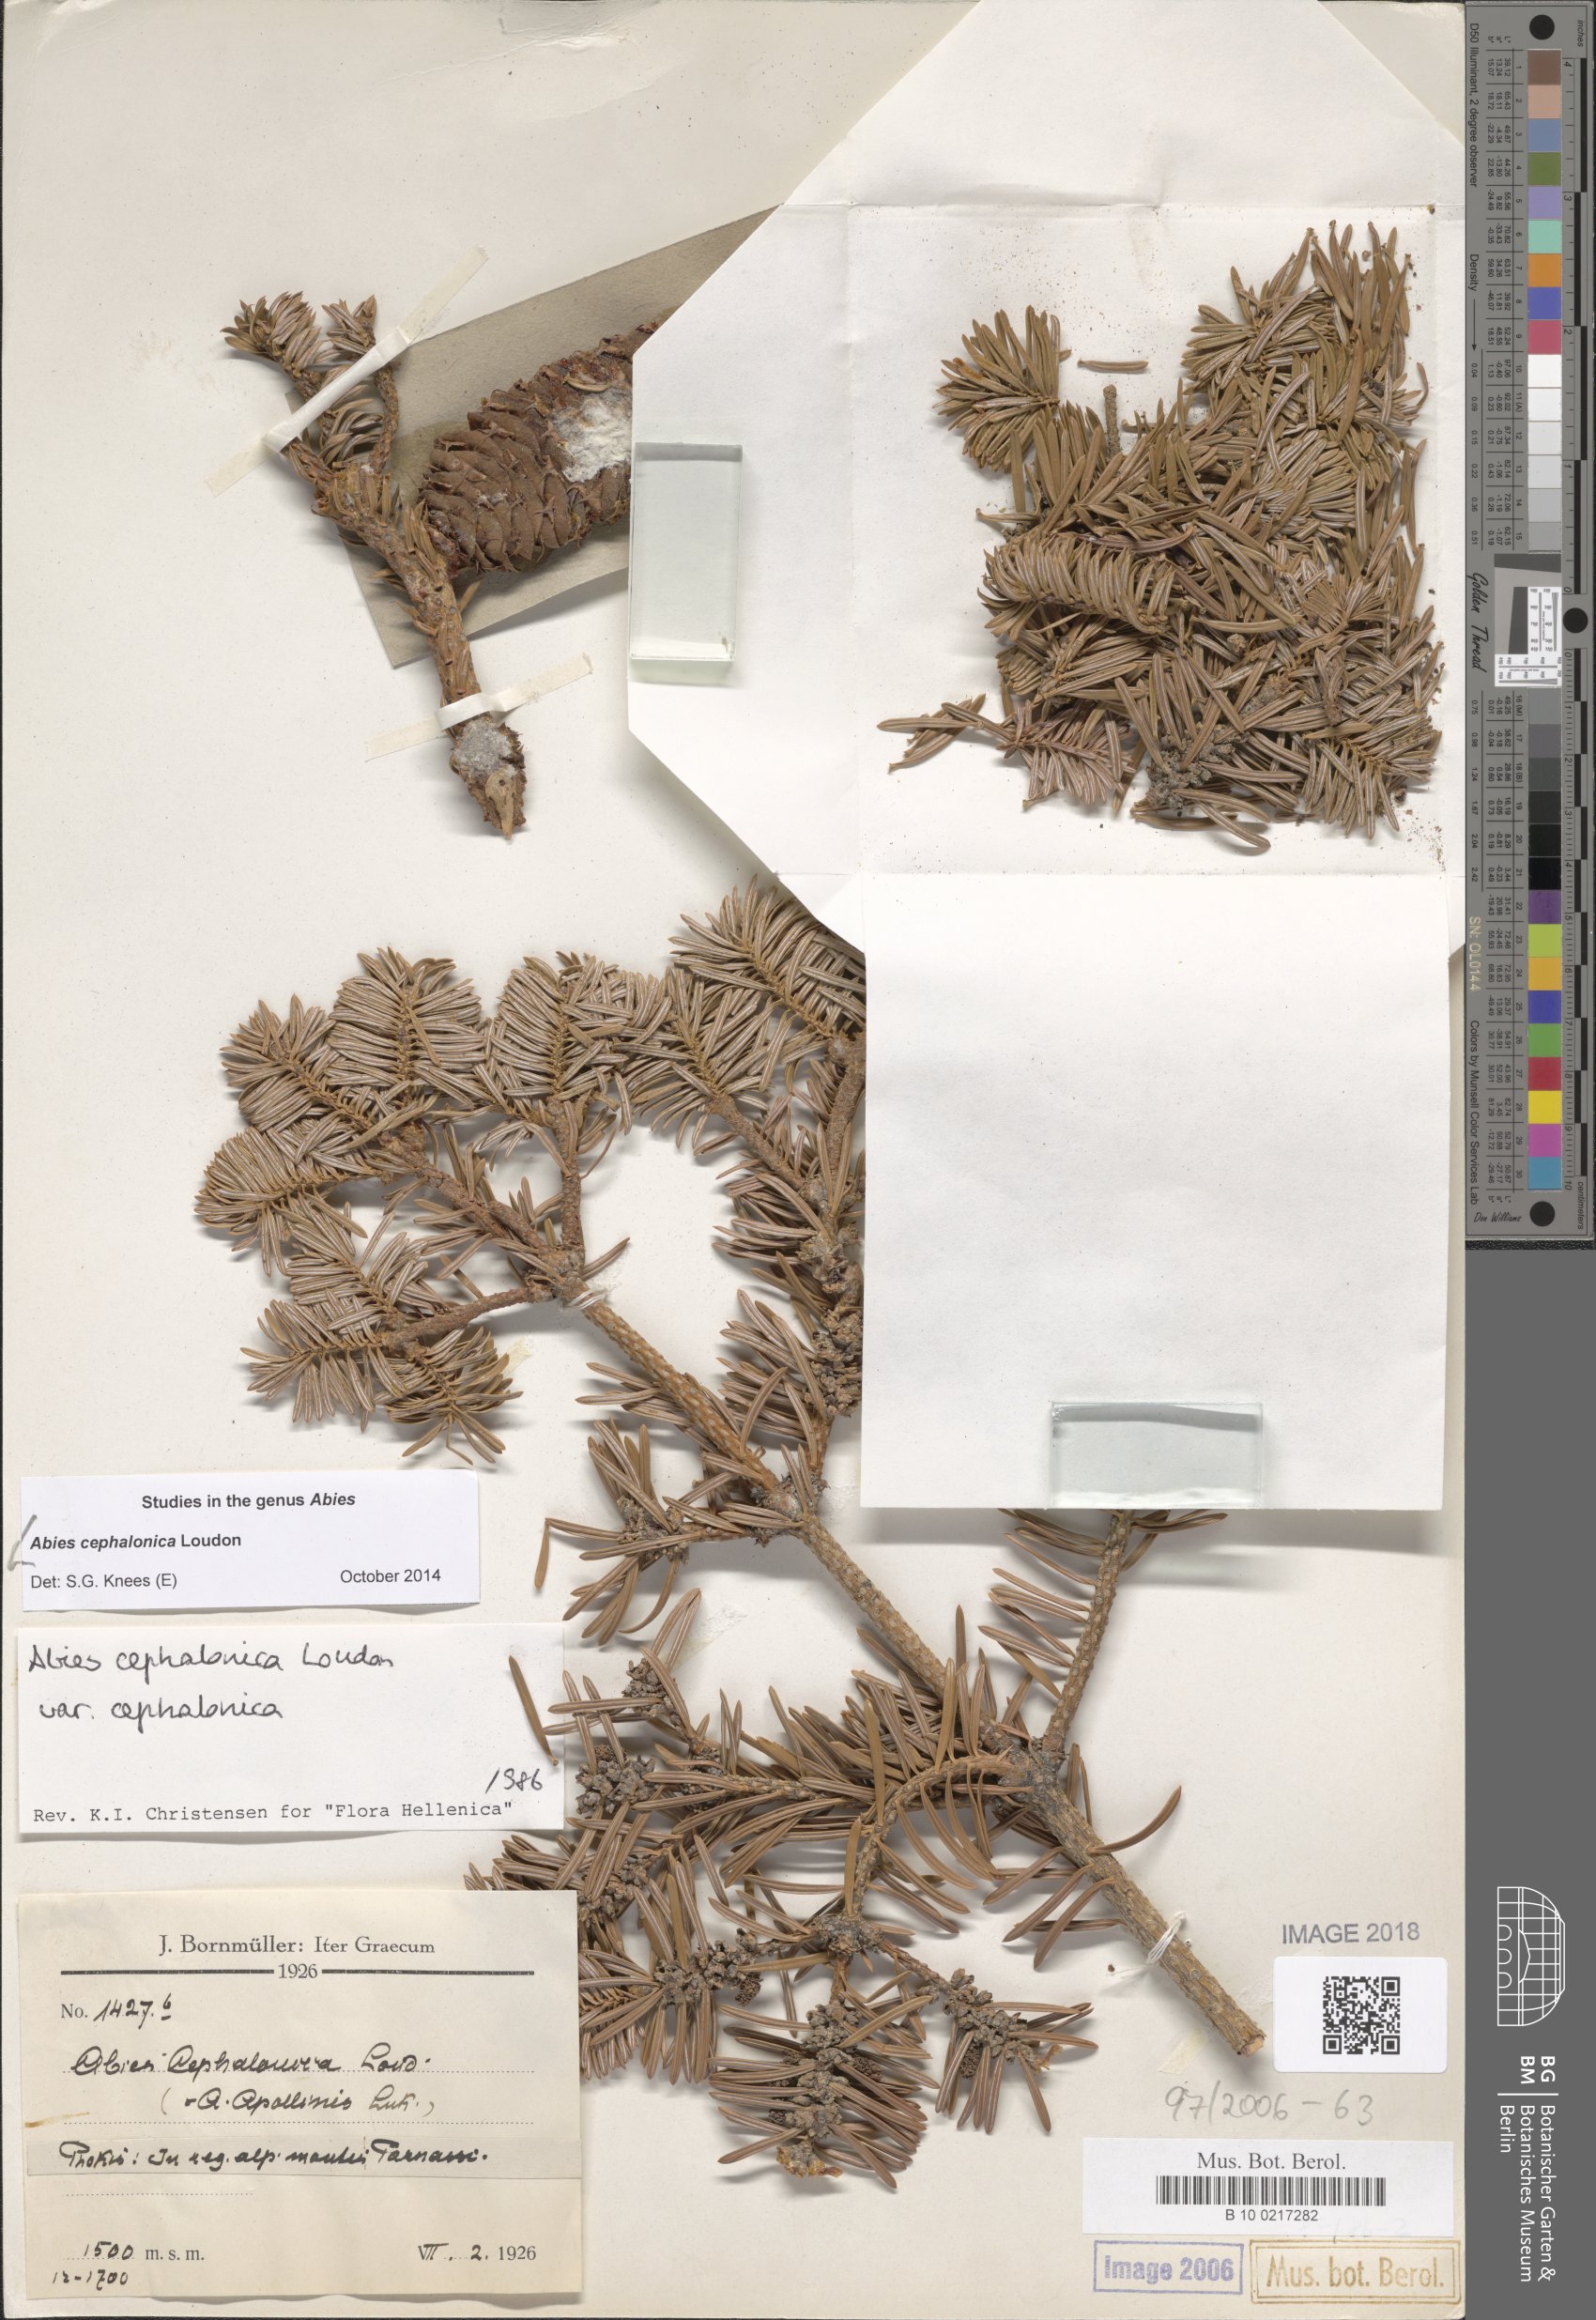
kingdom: Plantae
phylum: Tracheophyta
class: Pinopsida
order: Pinales
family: Pinaceae
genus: Abies
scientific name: Abies cephalonica
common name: Greek fir
